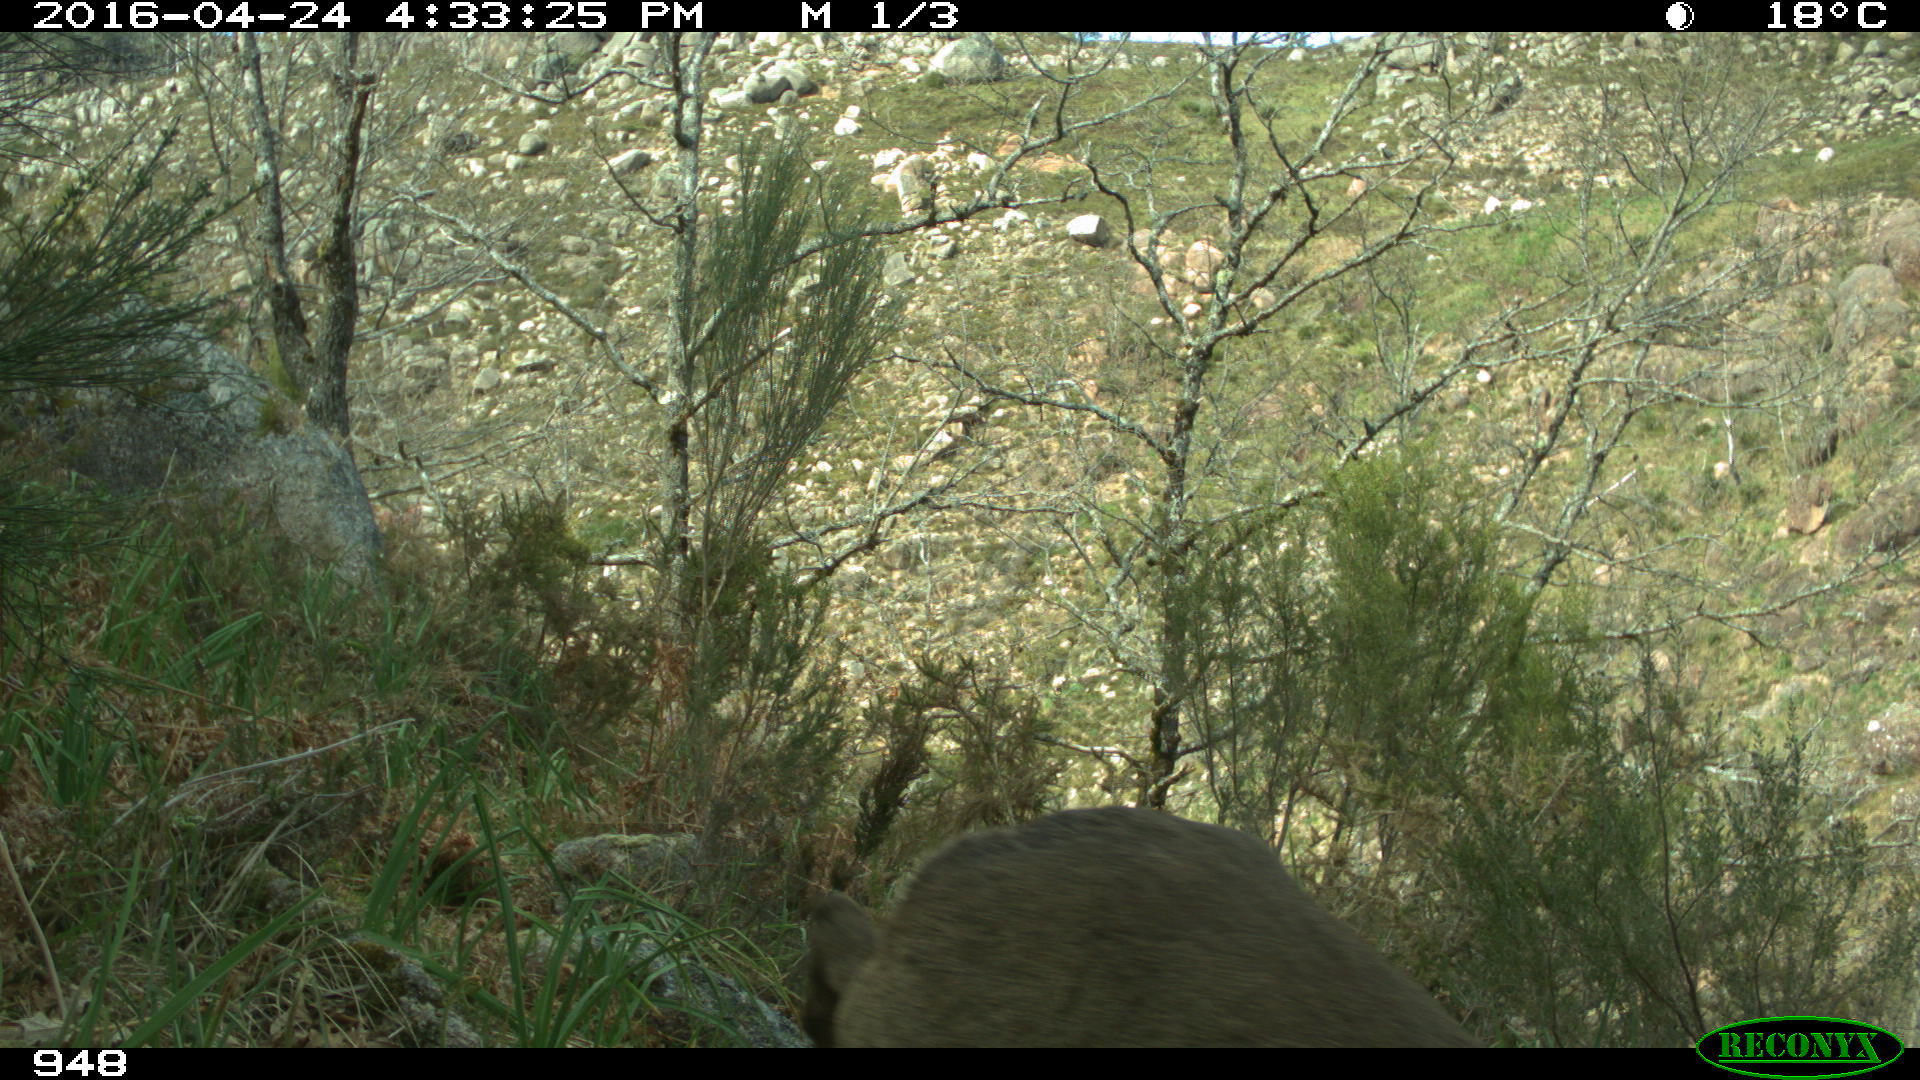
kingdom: Animalia
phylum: Chordata
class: Mammalia
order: Artiodactyla
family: Cervidae
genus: Capreolus
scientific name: Capreolus capreolus
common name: Western roe deer
